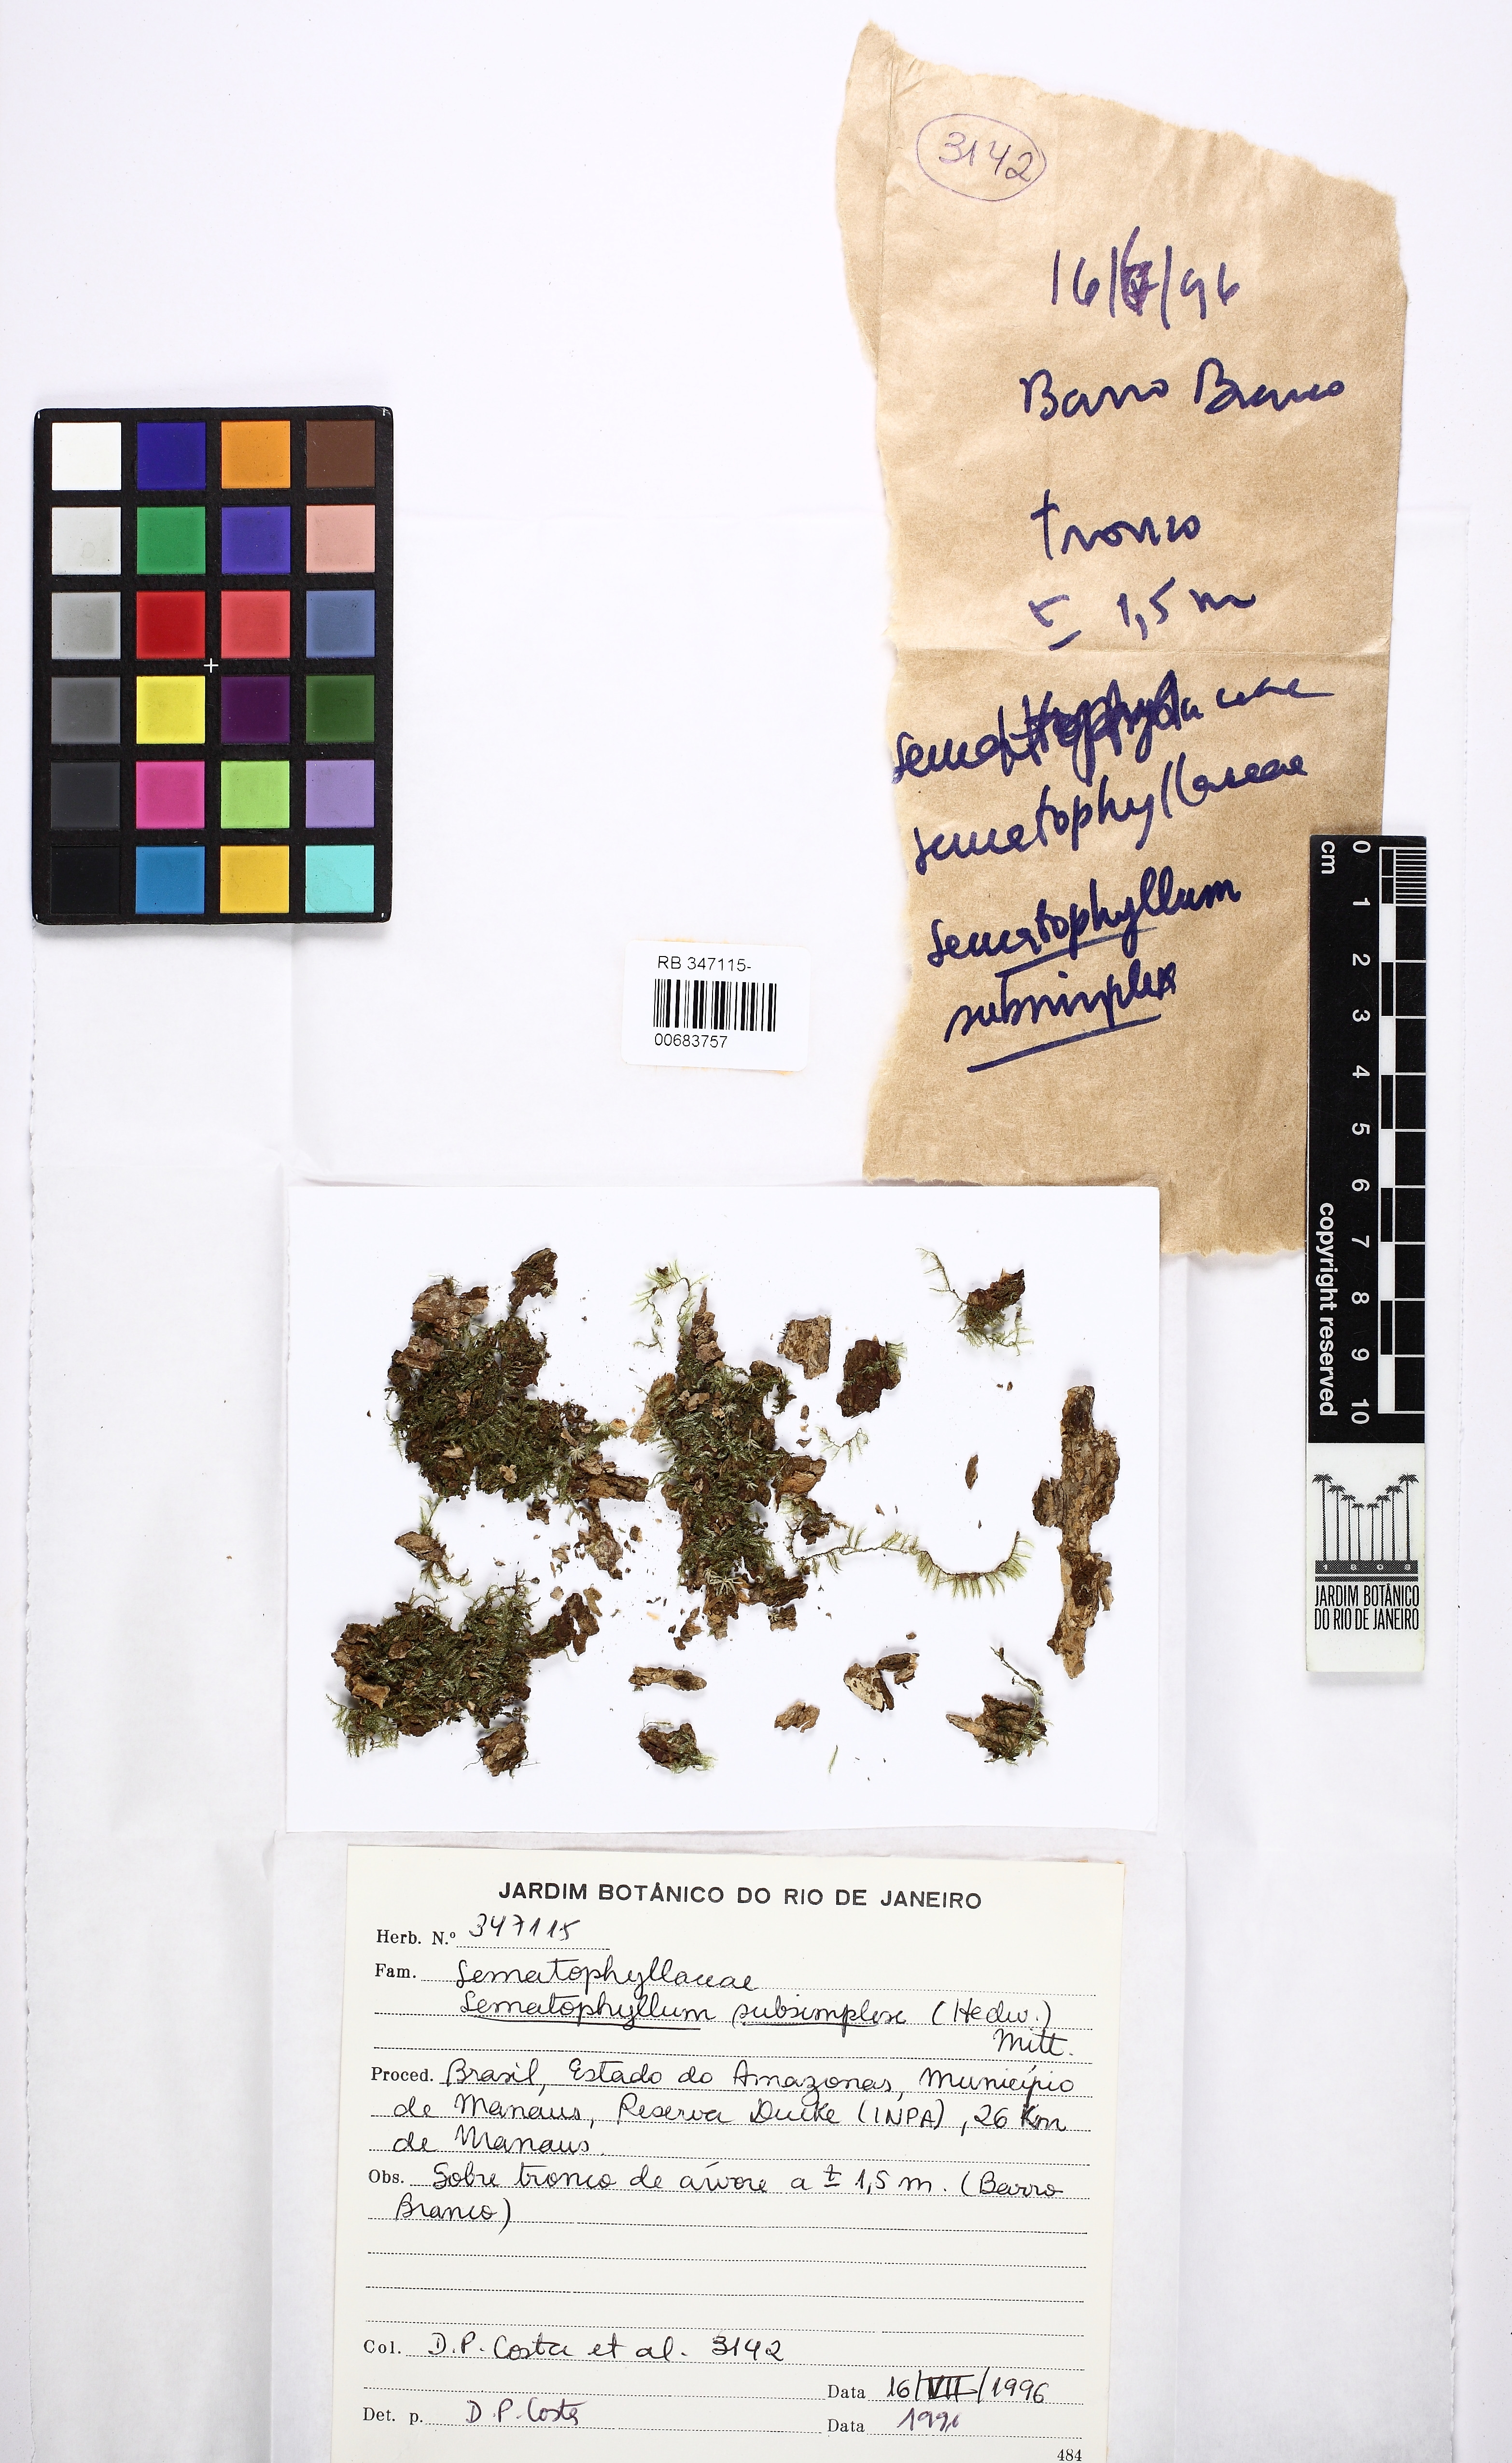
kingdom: Plantae
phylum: Bryophyta
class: Bryopsida
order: Hypnales
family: Sematophyllaceae
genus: Microcalpe
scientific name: Microcalpe subsimplex
